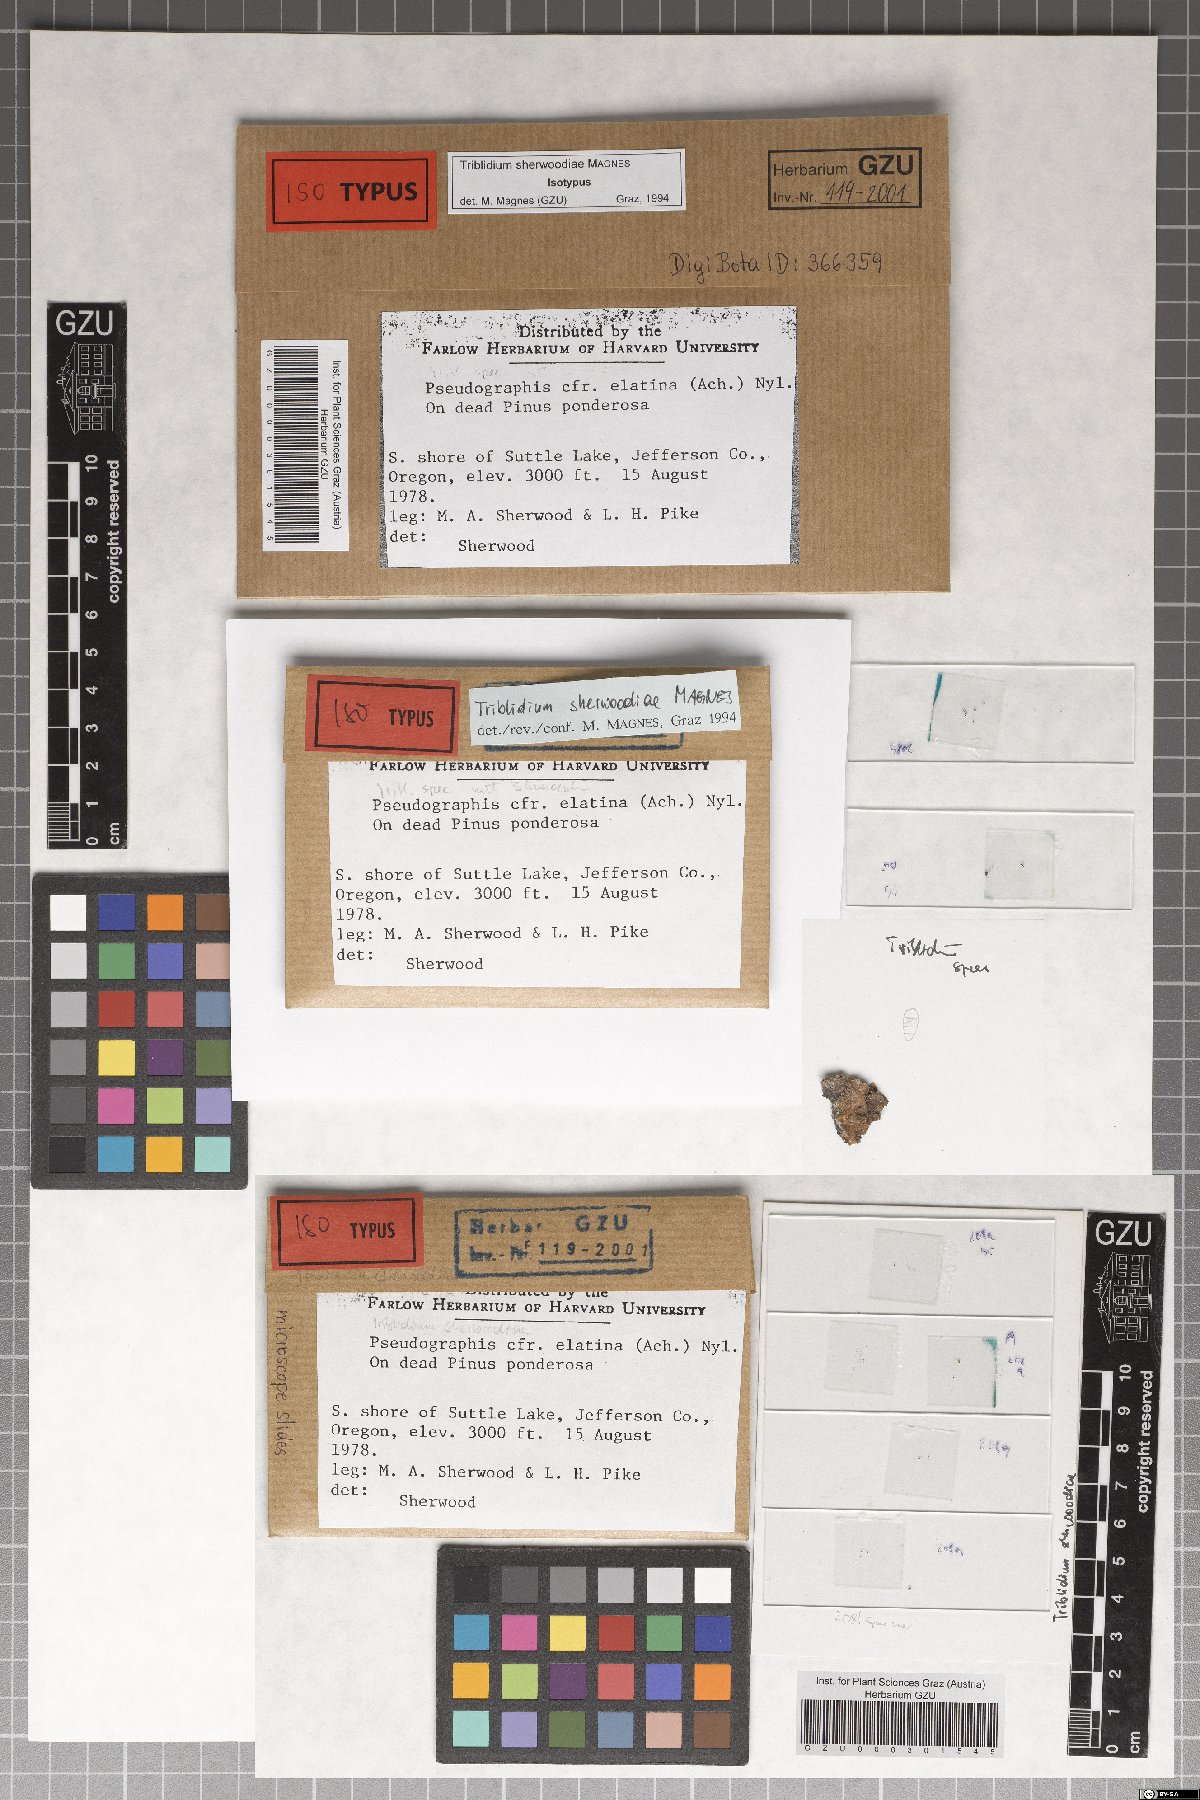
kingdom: Fungi
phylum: Ascomycota
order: Triblidiales
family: Triblidiaceae
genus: Triblidium
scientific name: Triblidium sherwoodiae
